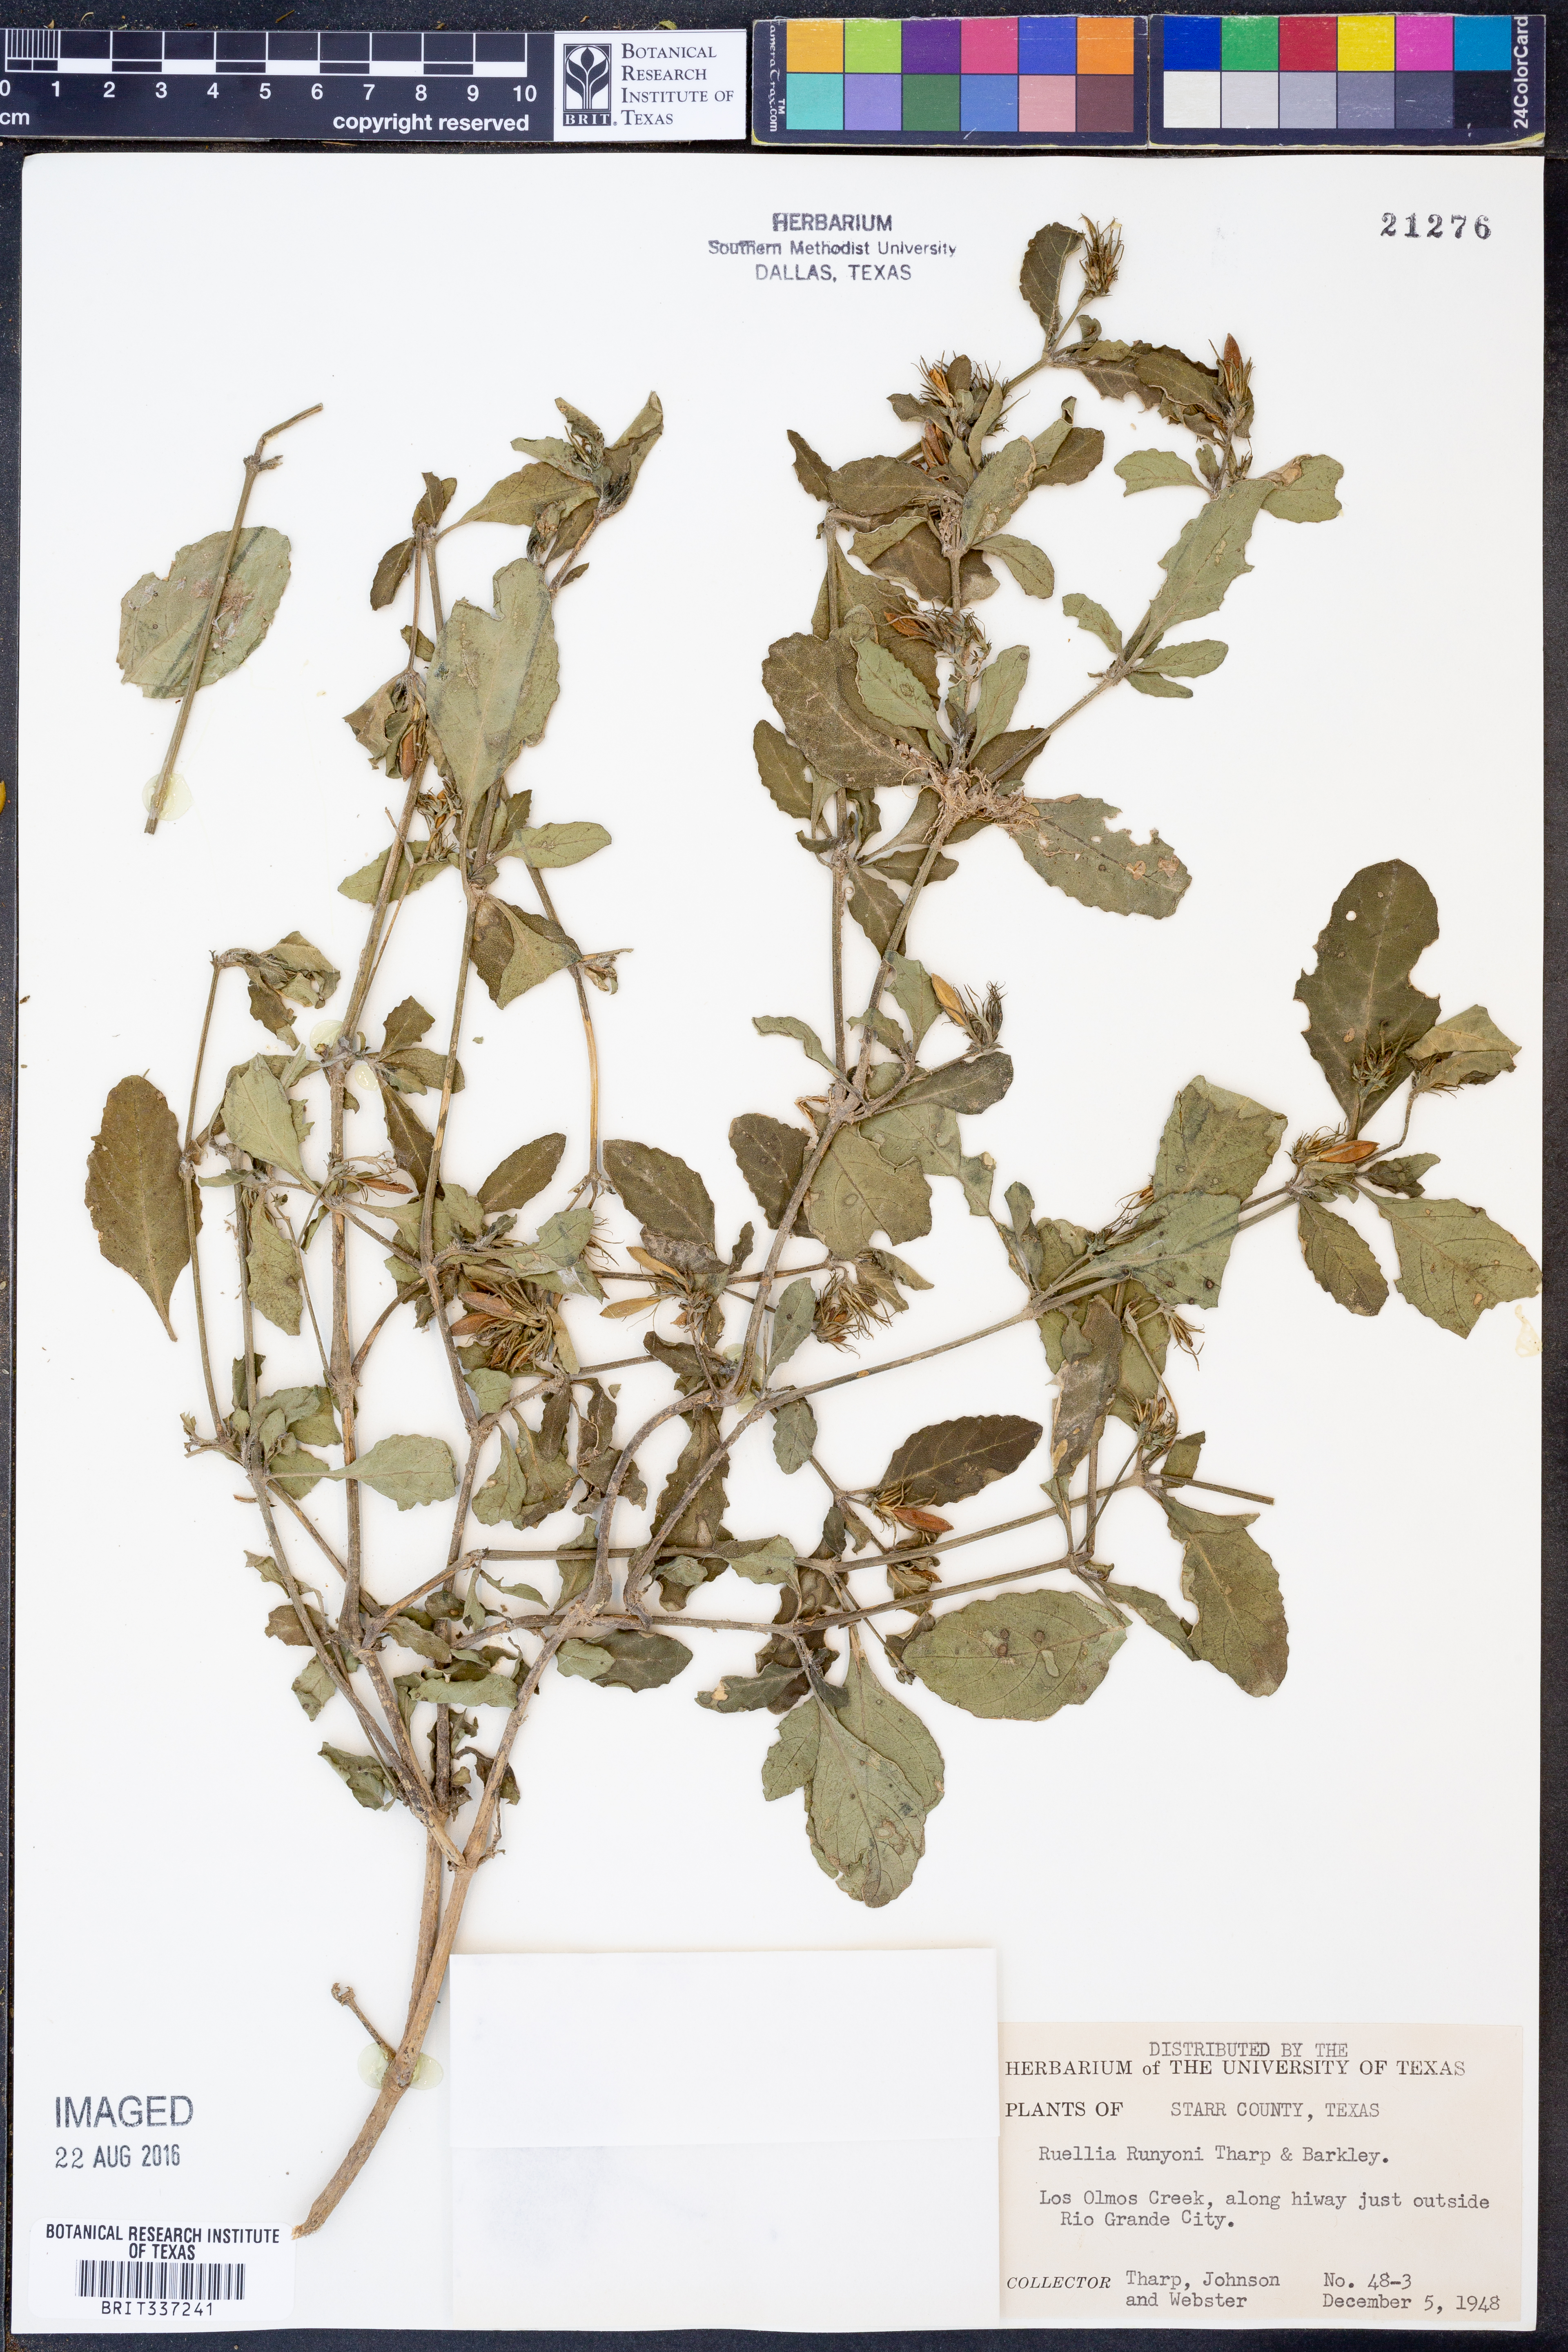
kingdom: Plantae
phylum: Tracheophyta
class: Magnoliopsida
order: Lamiales
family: Acanthaceae
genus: Ruellia
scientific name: Ruellia ciliatiflora
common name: Hairyflower wild petunia
